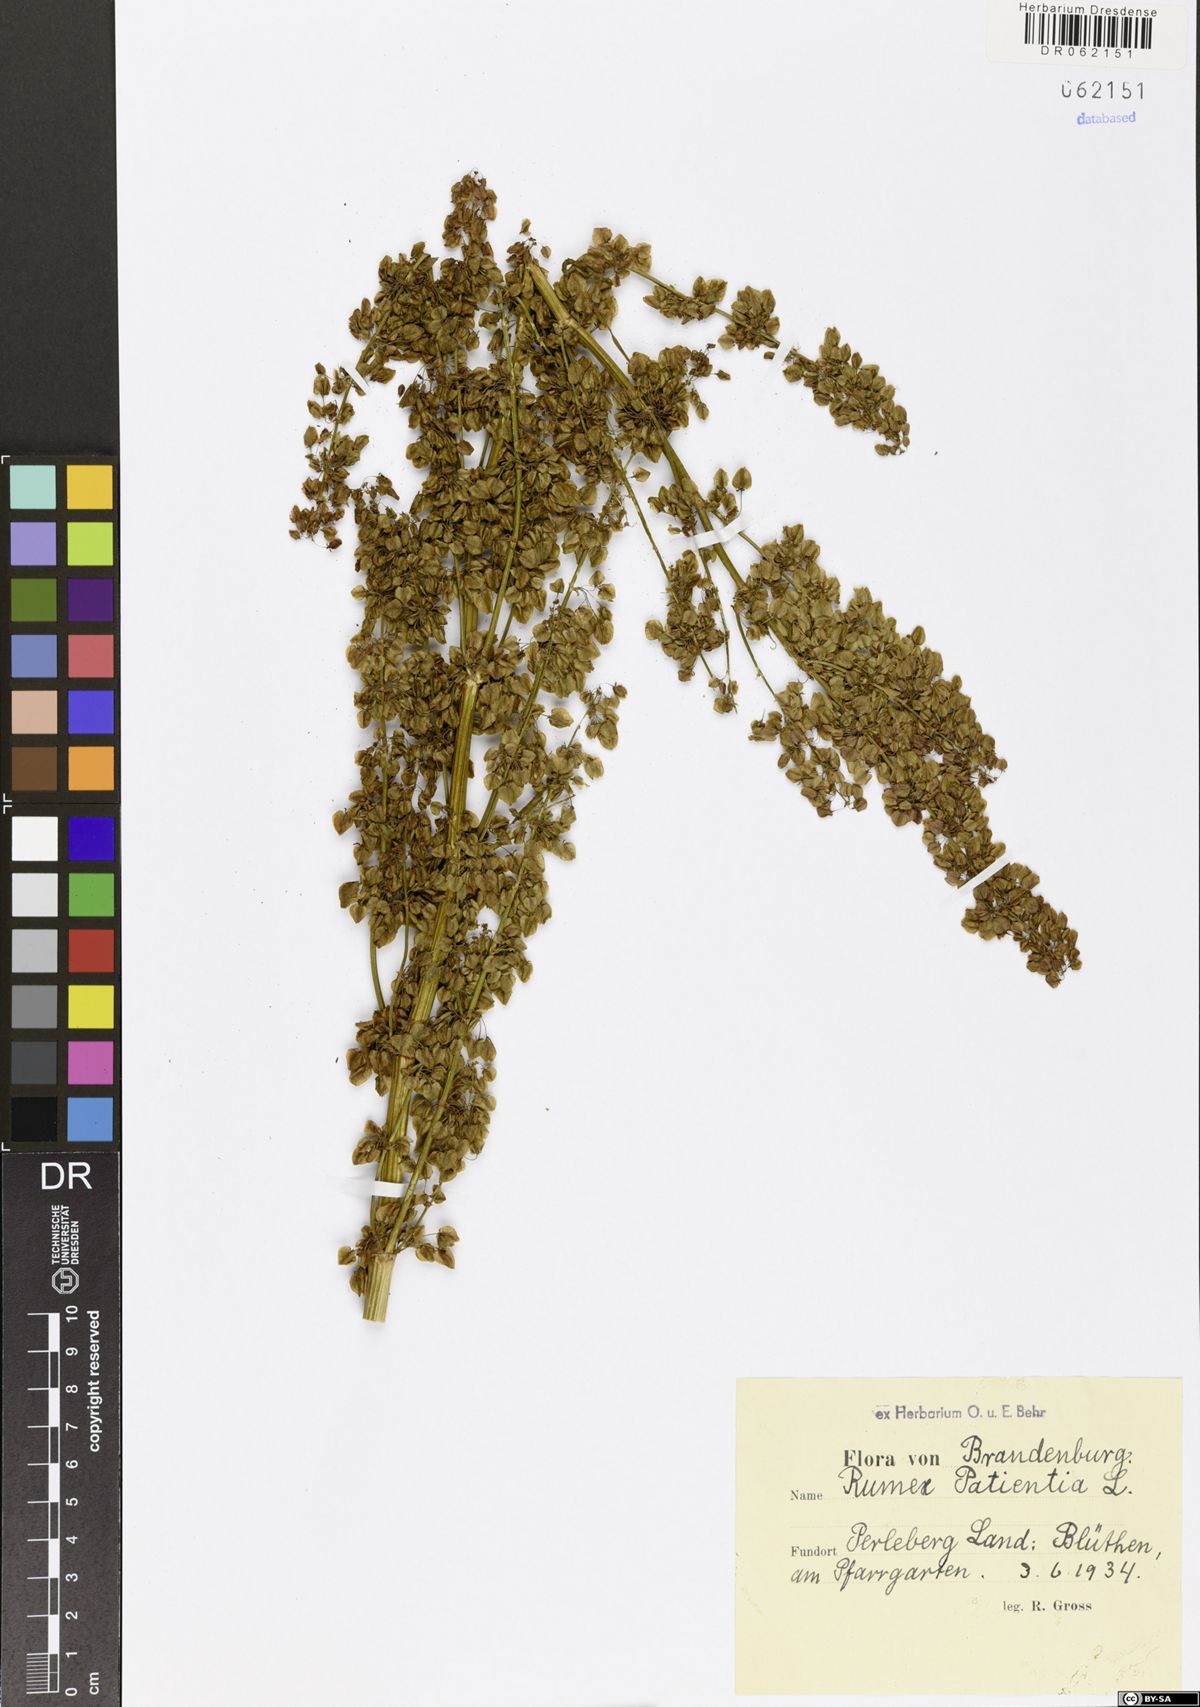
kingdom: Plantae
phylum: Tracheophyta
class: Magnoliopsida
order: Caryophyllales
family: Polygonaceae
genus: Rumex
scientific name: Rumex patientia
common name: Patience dock
